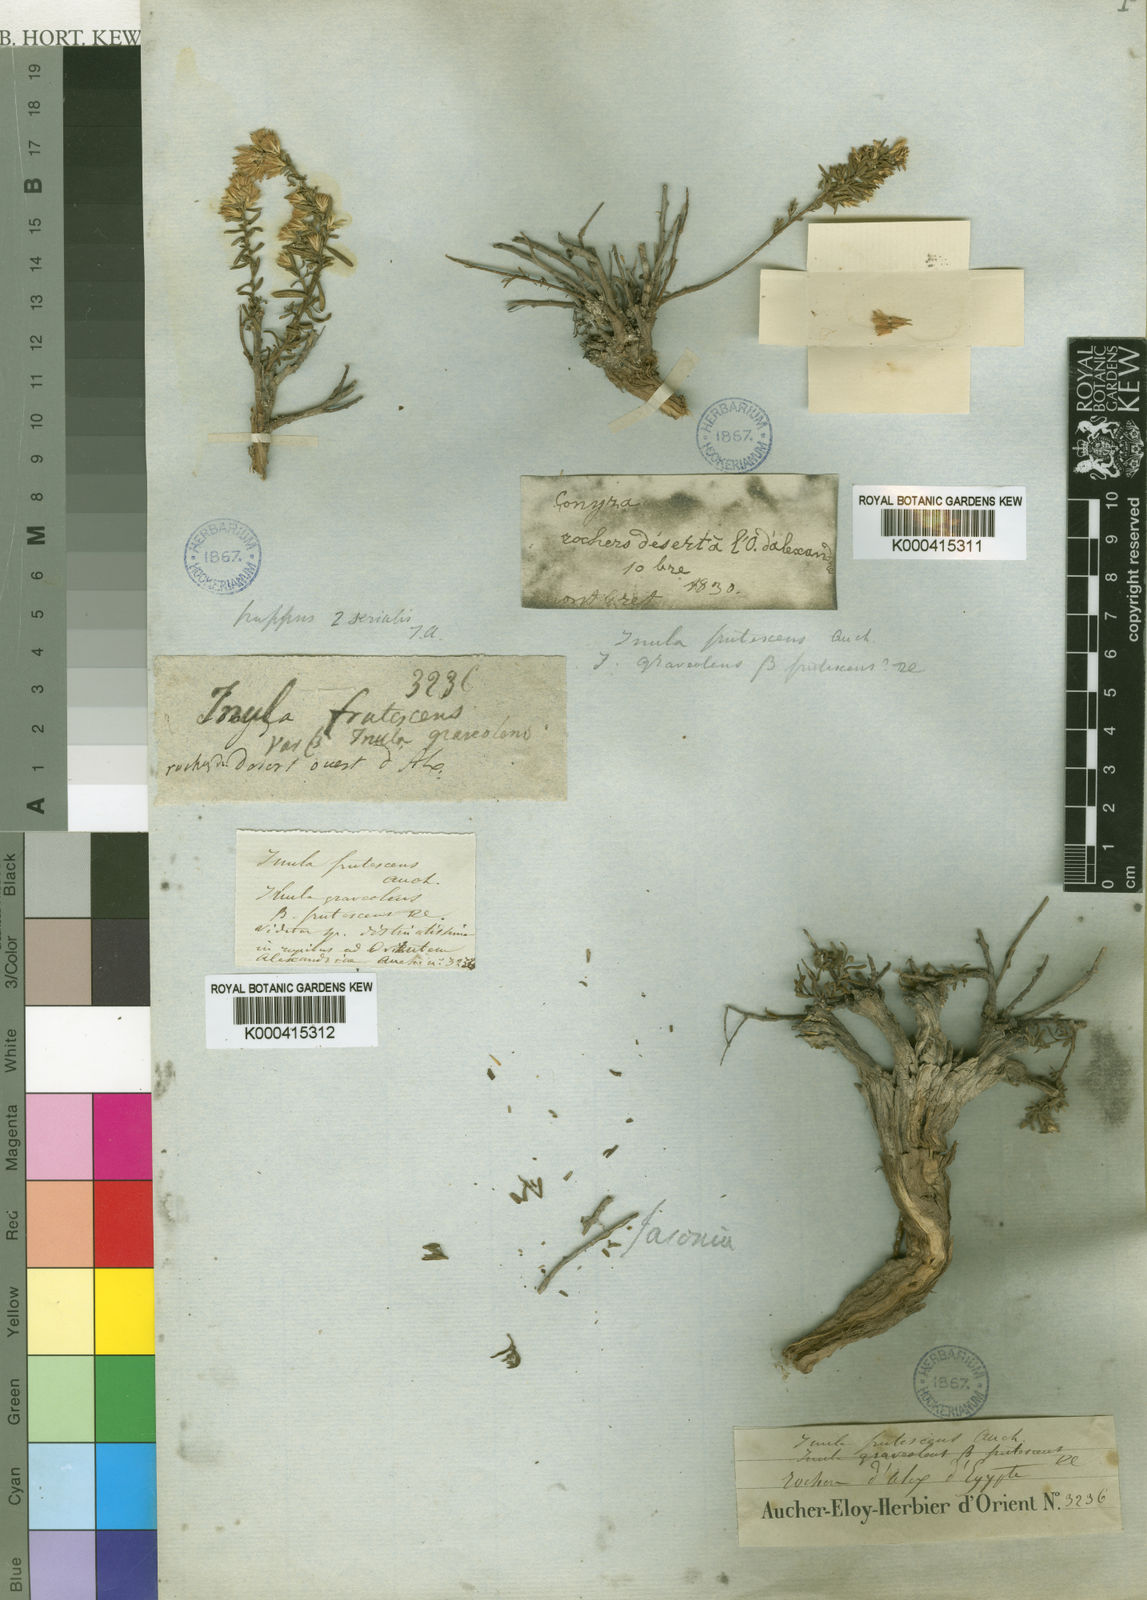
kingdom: Plantae
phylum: Tracheophyta
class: Magnoliopsida
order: Asterales
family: Asteraceae
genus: Chiliadenus
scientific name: Chiliadenus candicans
